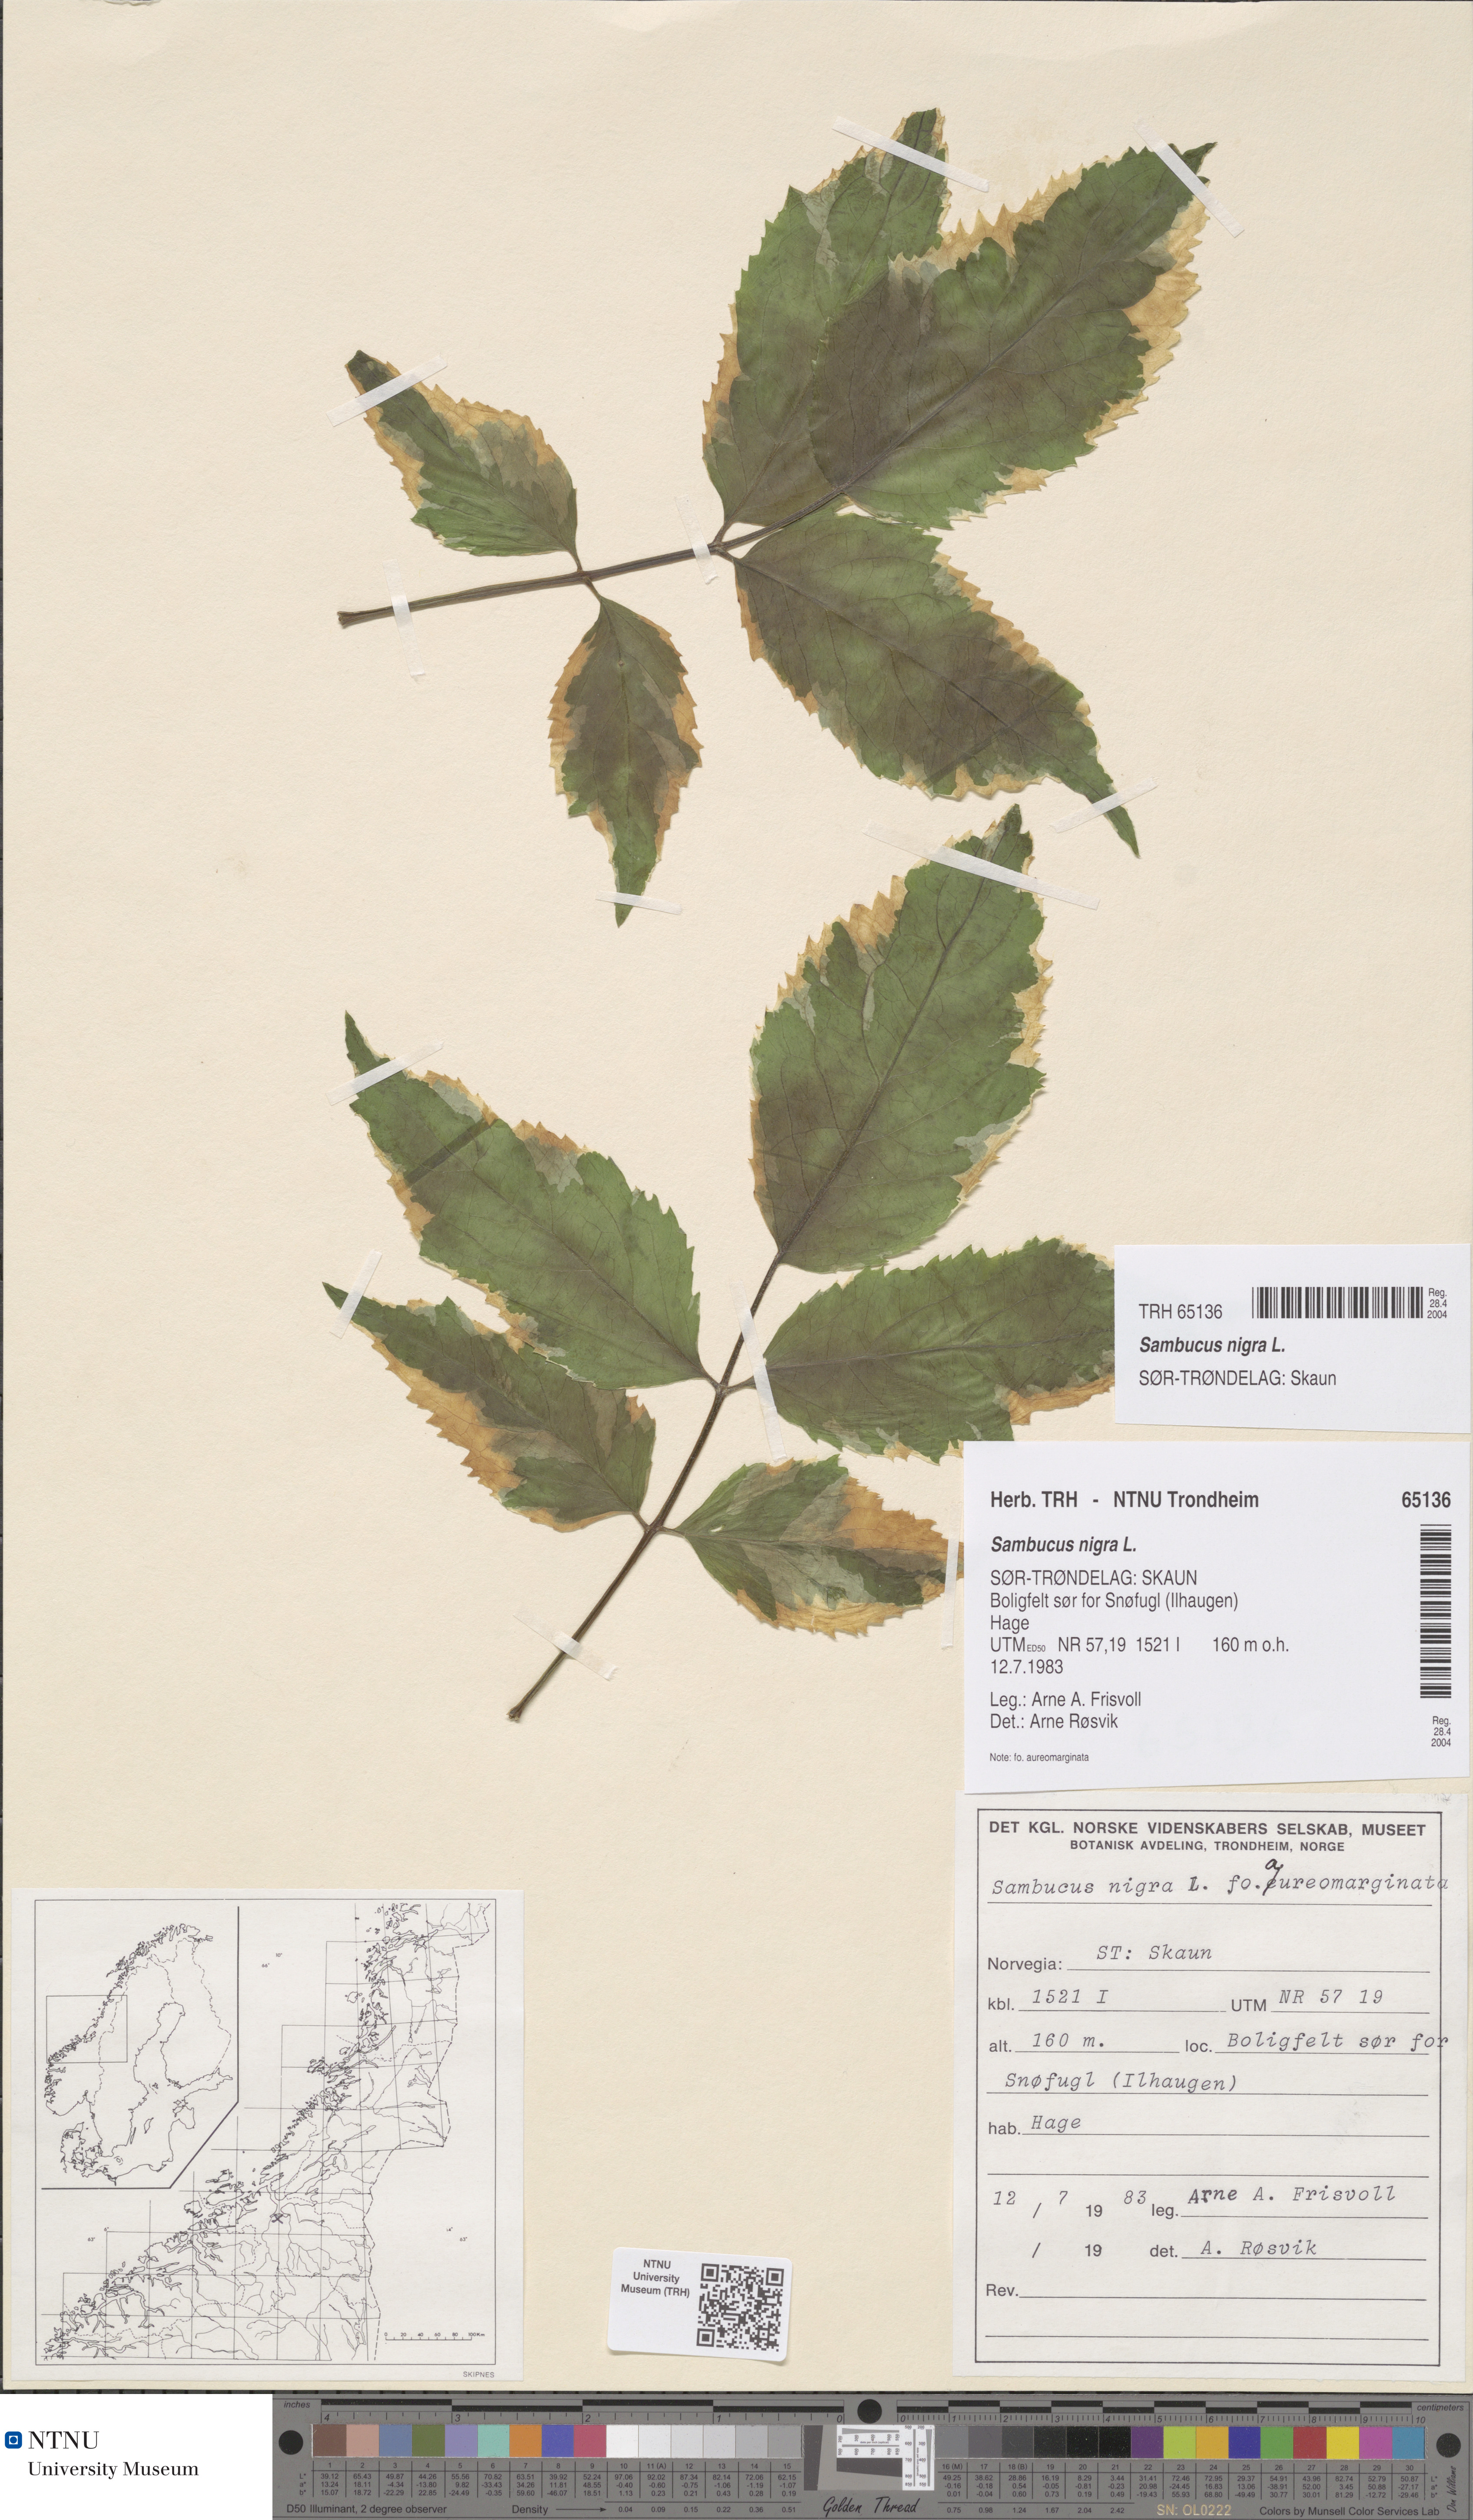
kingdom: Plantae
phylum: Tracheophyta
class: Magnoliopsida
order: Dipsacales
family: Viburnaceae
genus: Sambucus
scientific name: Sambucus nigra
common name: Elder
